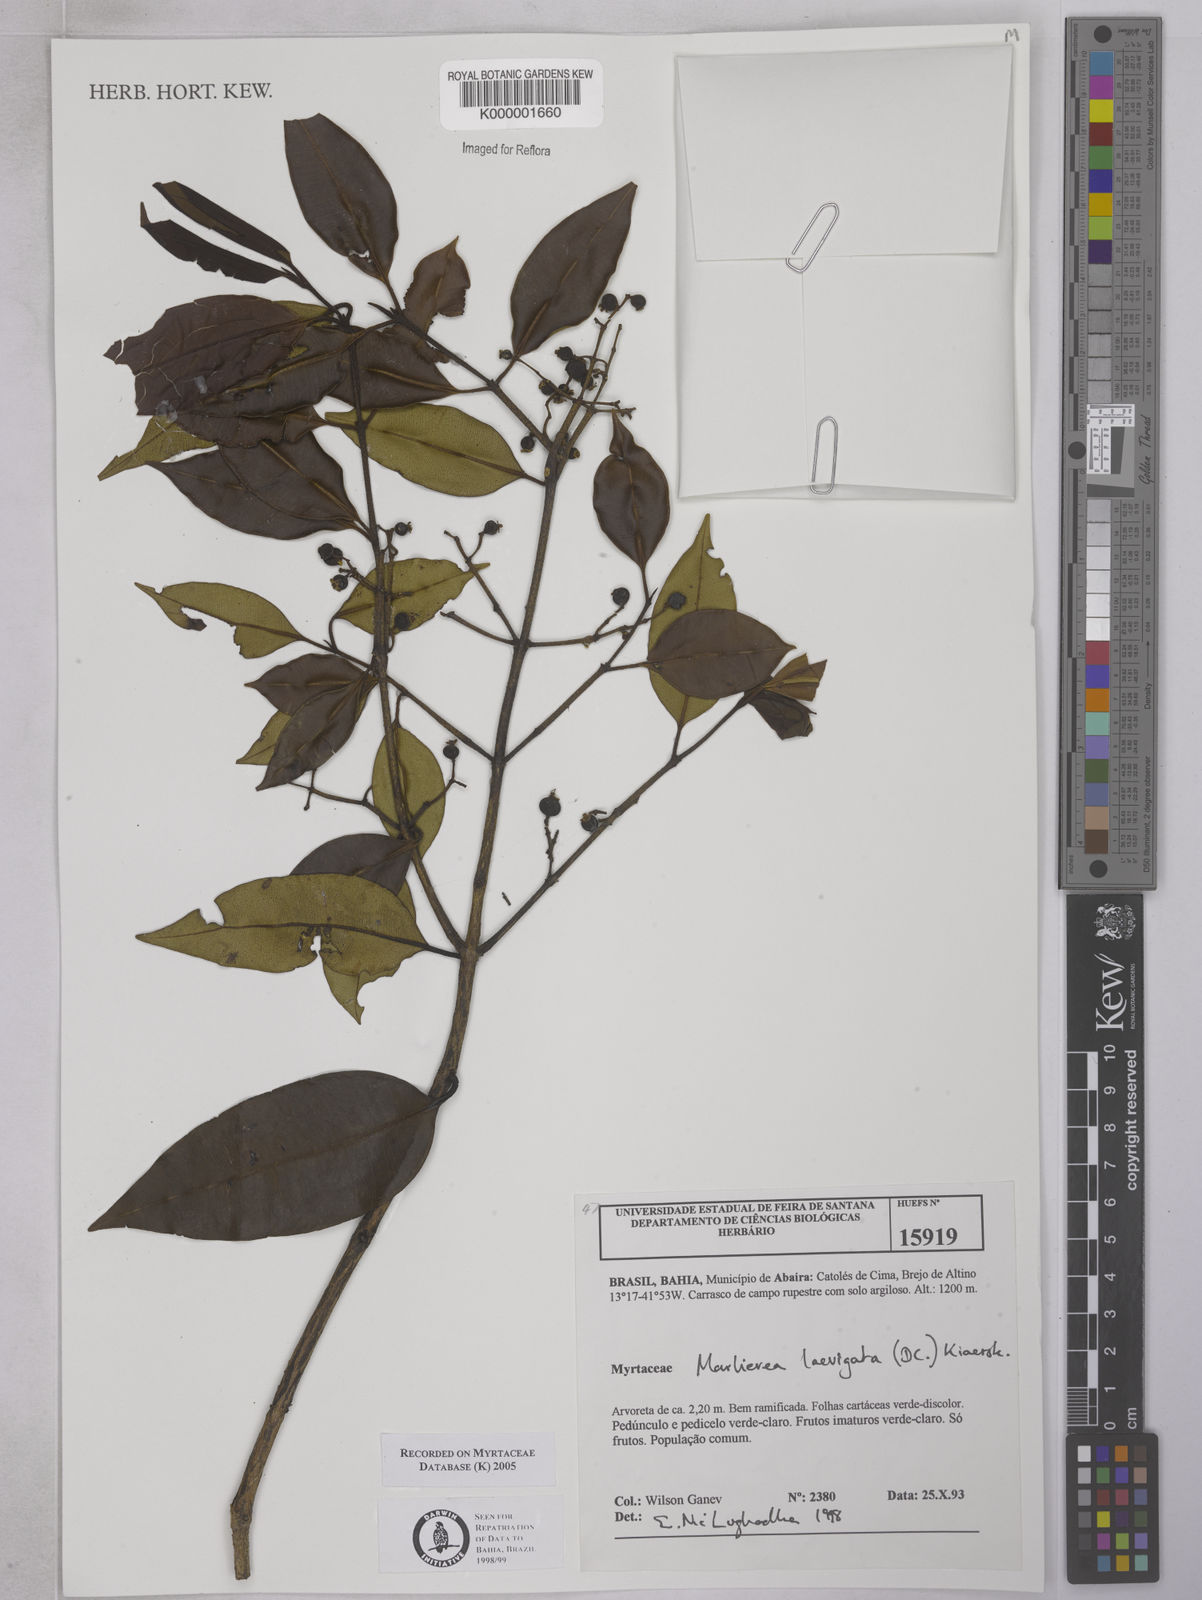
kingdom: Plantae
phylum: Tracheophyta
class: Magnoliopsida
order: Myrtales
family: Myrtaceae
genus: Myrcia
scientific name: Myrcia multipunctata
